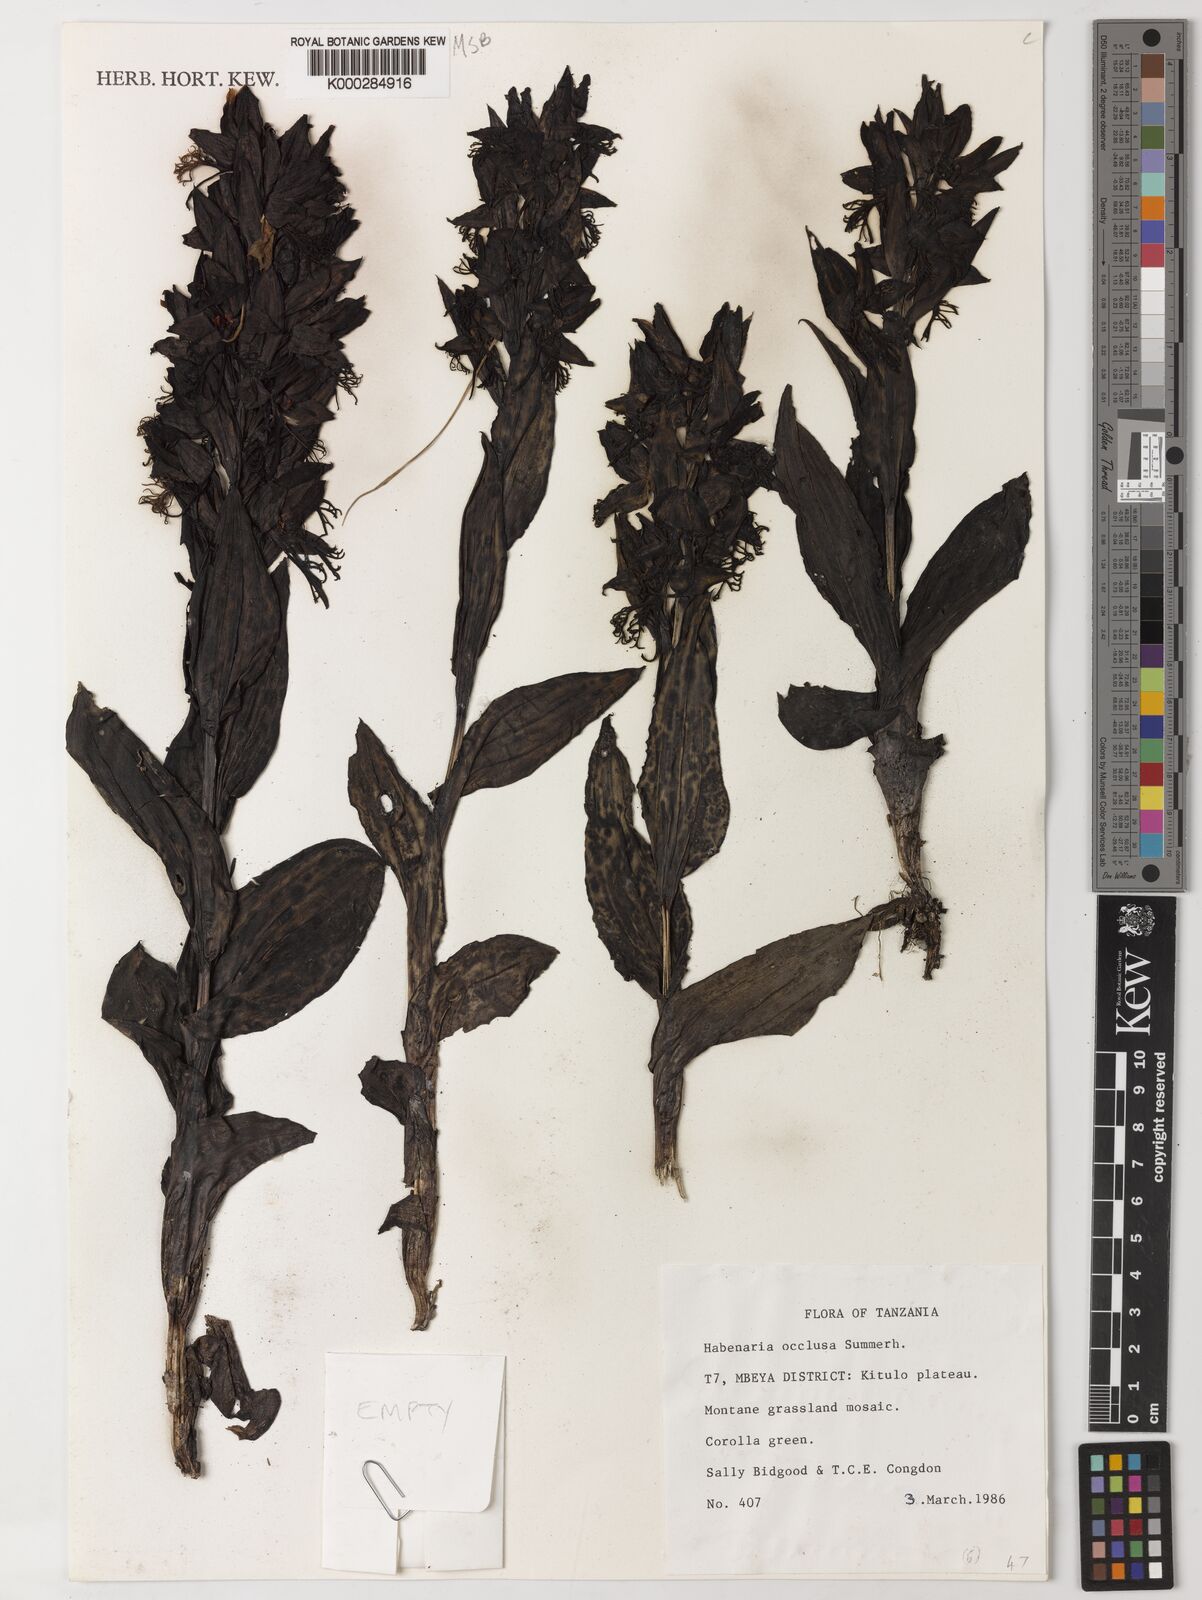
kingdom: Plantae
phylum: Tracheophyta
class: Liliopsida
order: Asparagales
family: Orchidaceae
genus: Habenaria
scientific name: Habenaria occlusa
